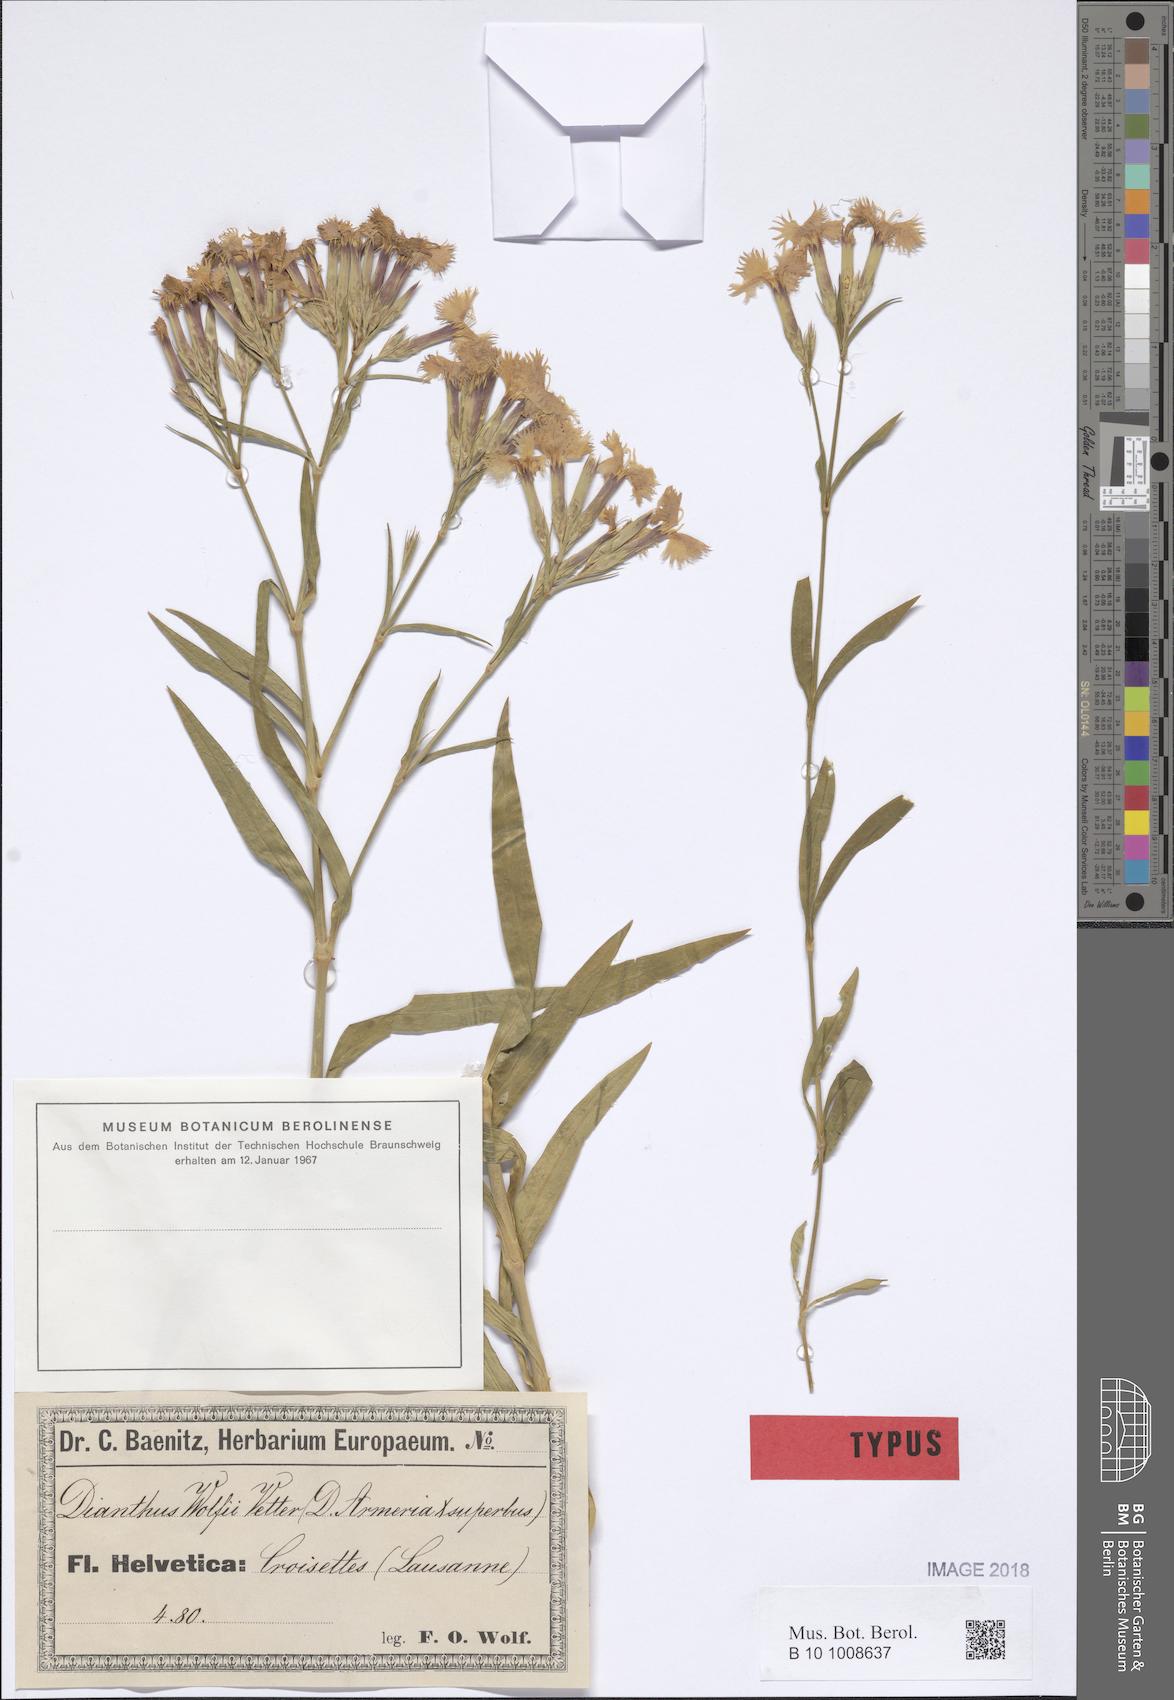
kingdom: Plantae
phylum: Tracheophyta
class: Magnoliopsida
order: Caryophyllales
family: Caryophyllaceae
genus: Dianthus
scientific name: Dianthus courtoisii
